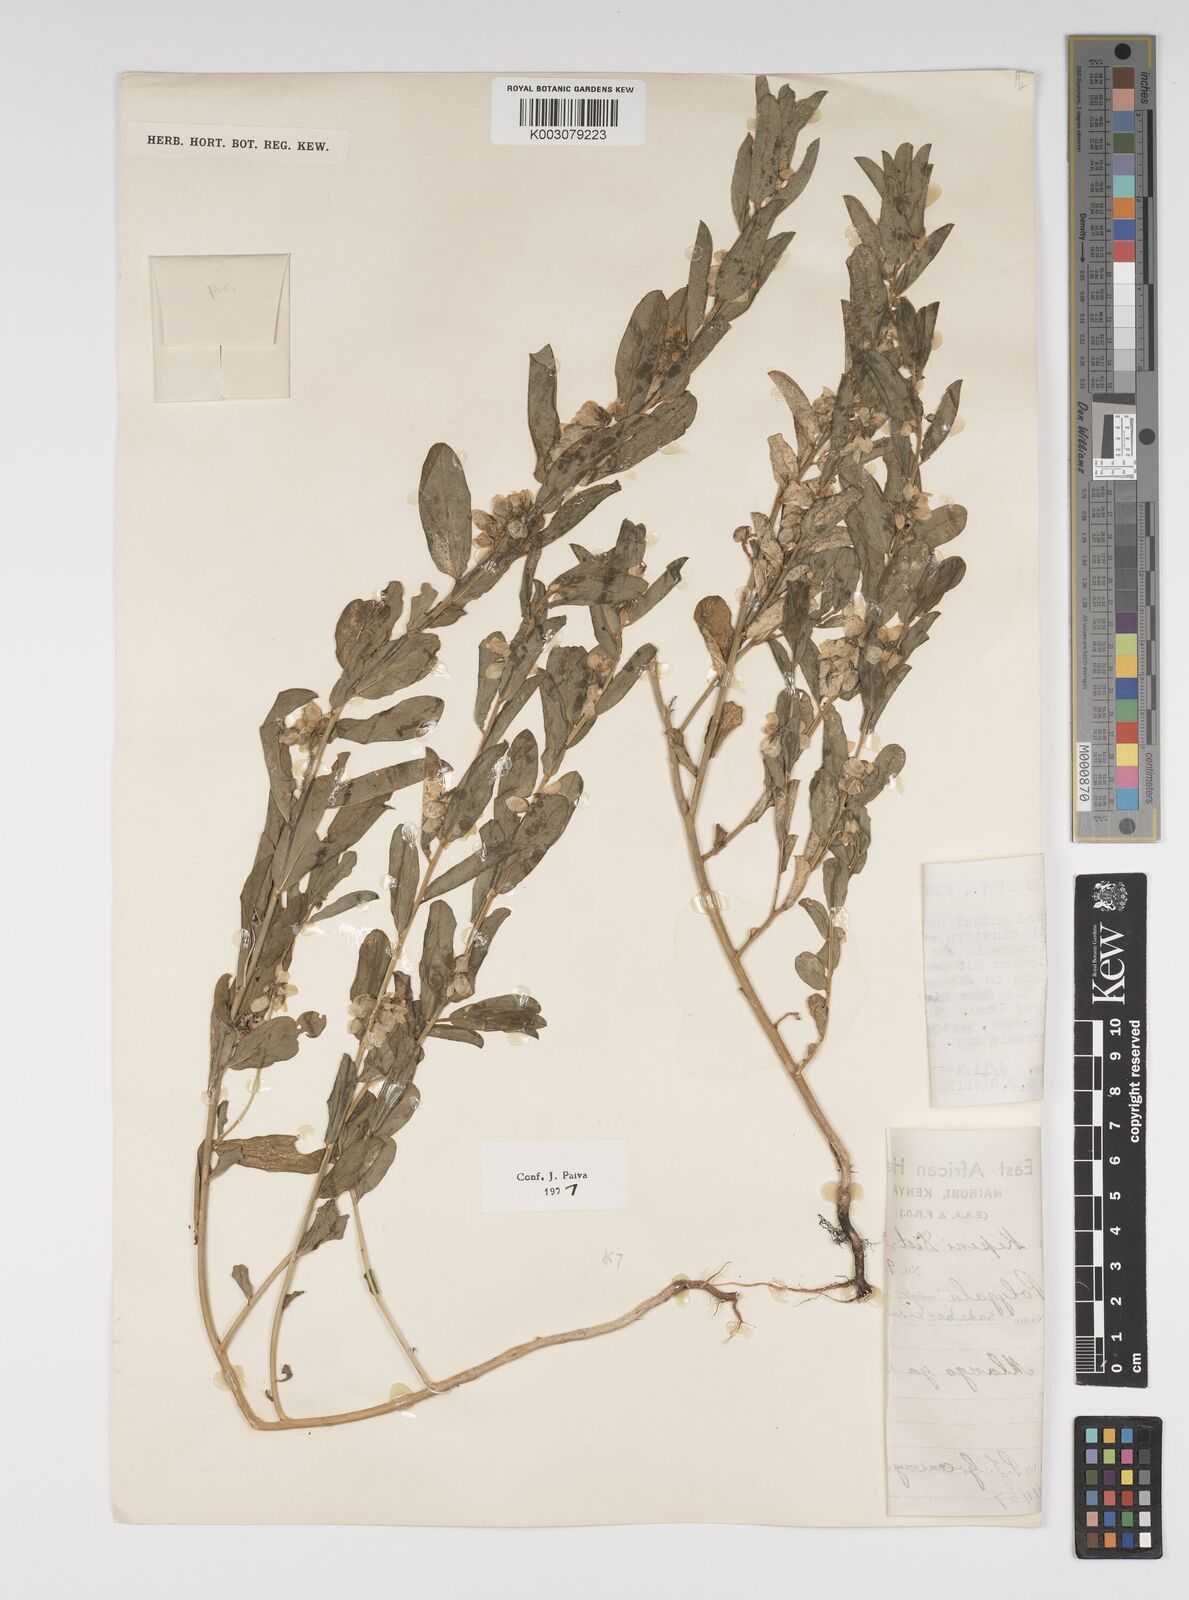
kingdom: Plantae
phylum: Tracheophyta
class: Magnoliopsida
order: Fabales
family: Polygalaceae
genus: Polygala
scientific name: Polygala sadebeckiana
